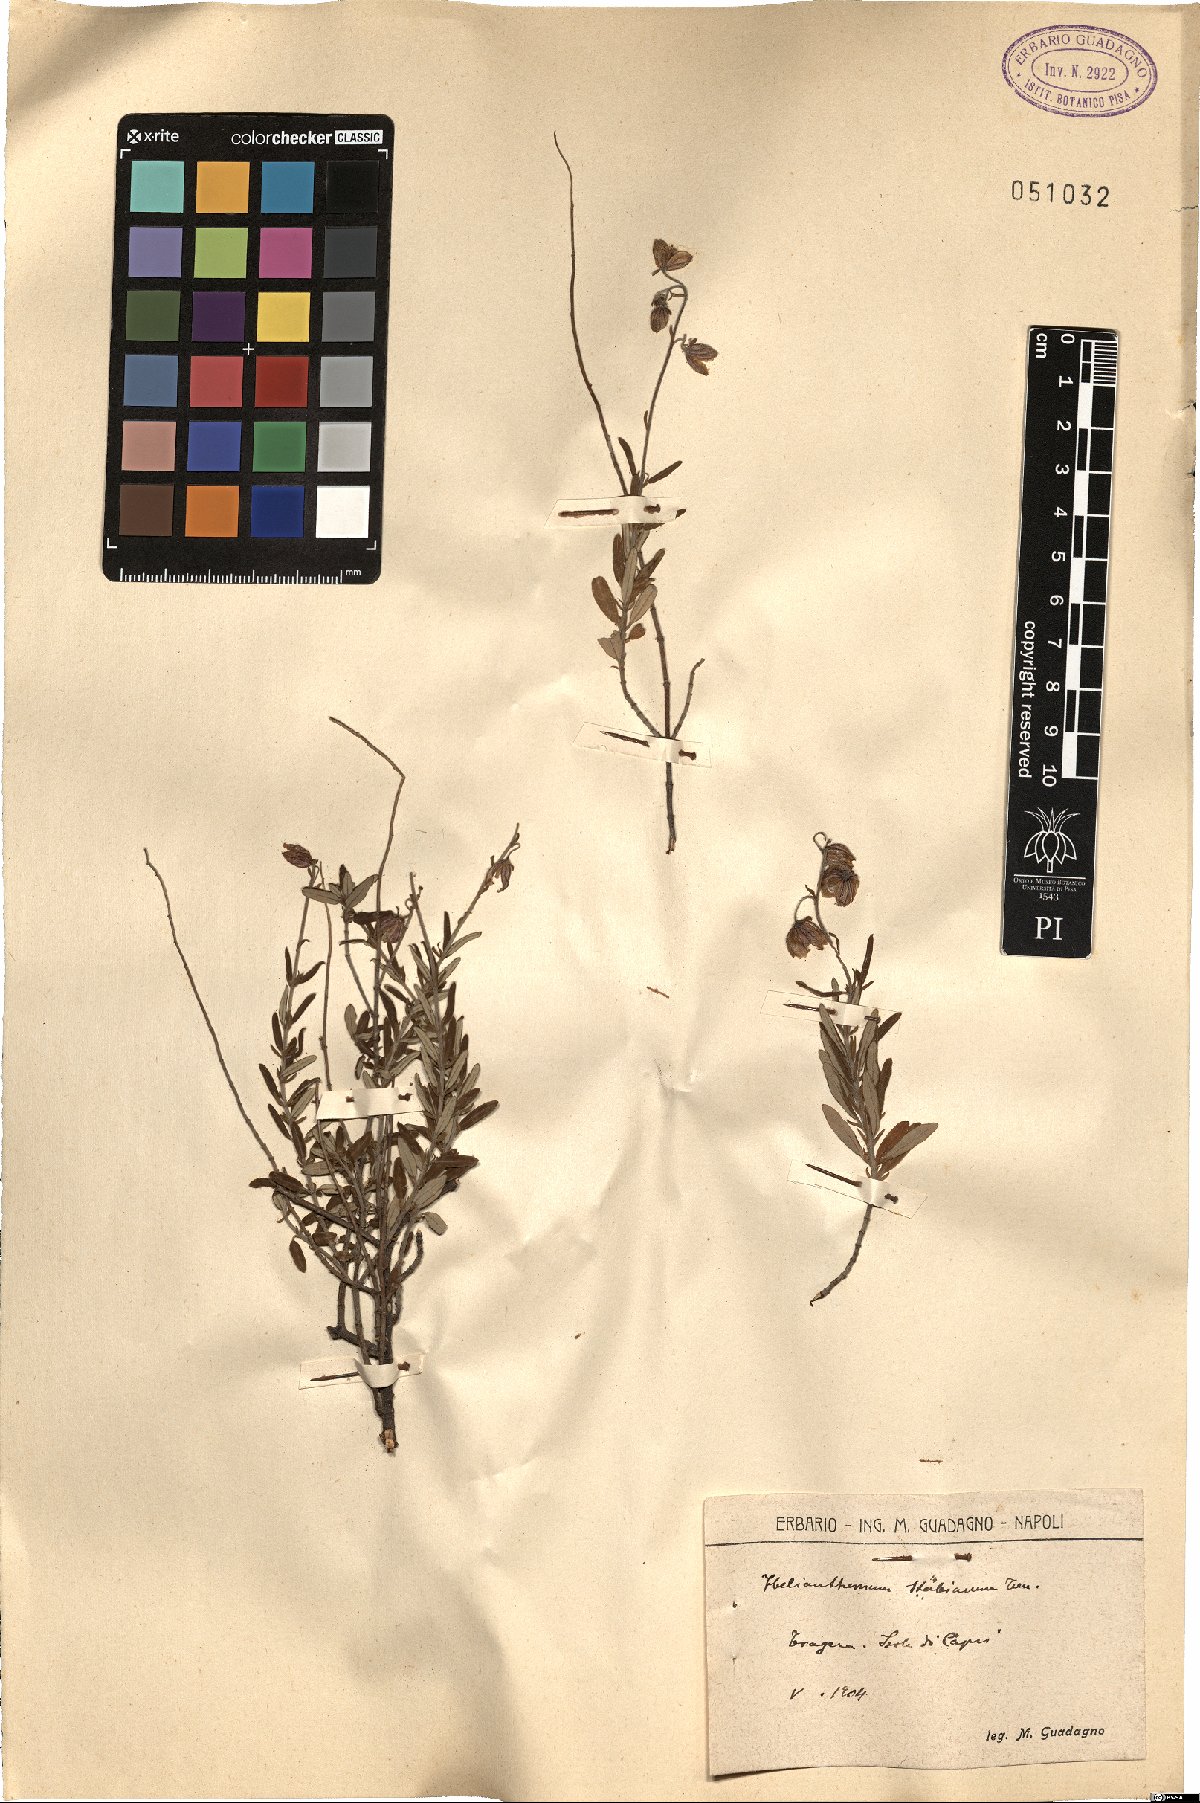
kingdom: Plantae
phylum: Tracheophyta
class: Magnoliopsida
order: Malvales
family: Cistaceae
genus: Helianthemum
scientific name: Helianthemum croceum
